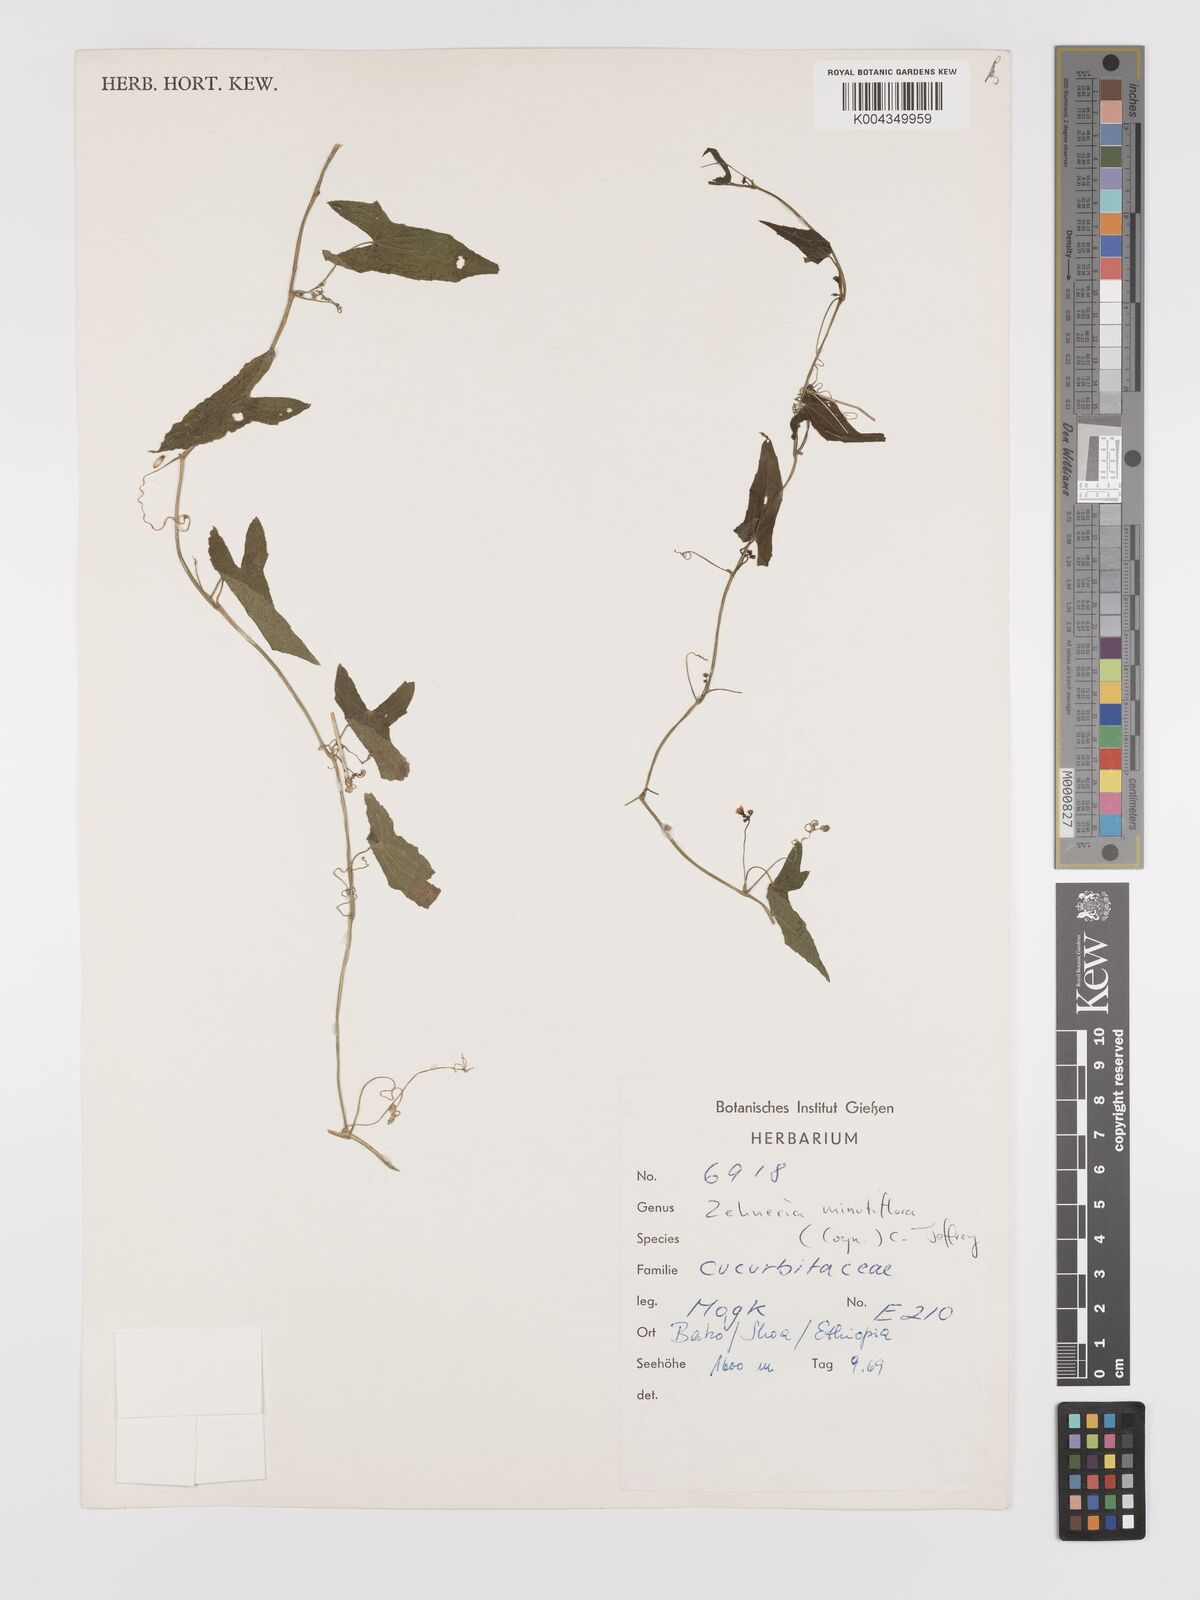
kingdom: Plantae
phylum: Tracheophyta
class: Magnoliopsida
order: Cucurbitales
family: Cucurbitaceae
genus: Zehneria
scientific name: Zehneria minutiflora
